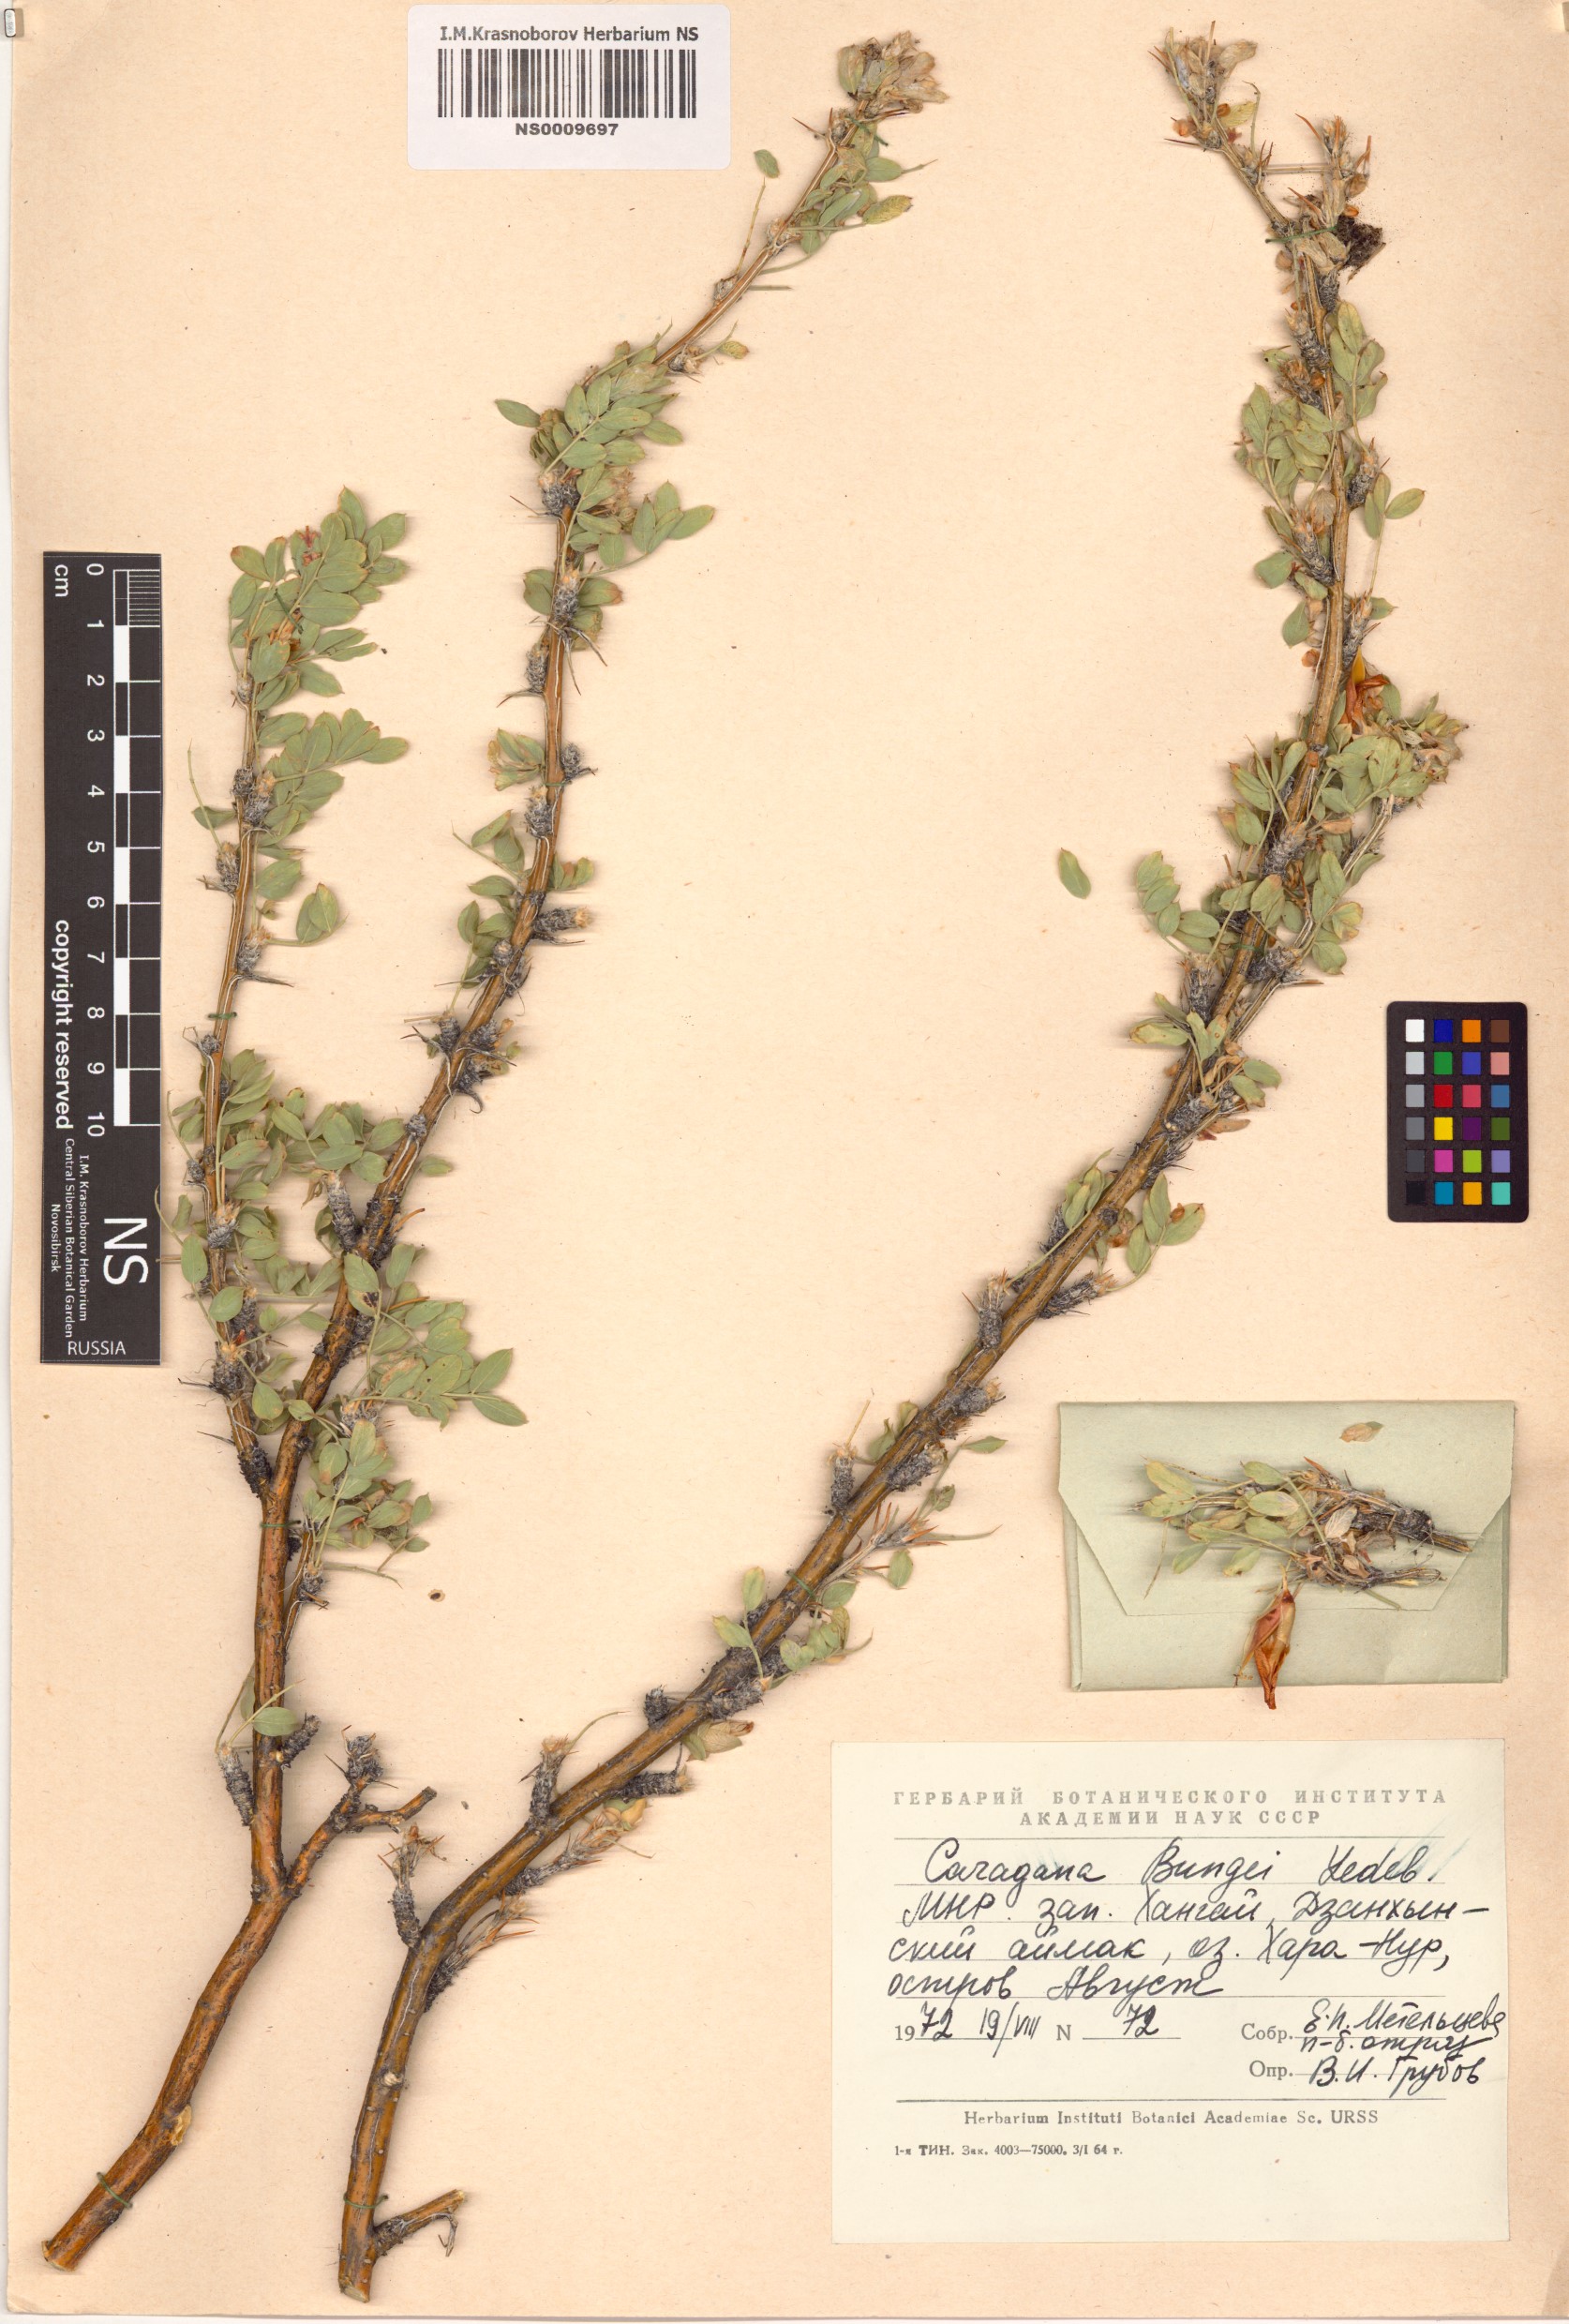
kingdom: Plantae
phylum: Tracheophyta
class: Magnoliopsida
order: Fabales
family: Fabaceae
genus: Caragana
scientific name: Caragana bungei
